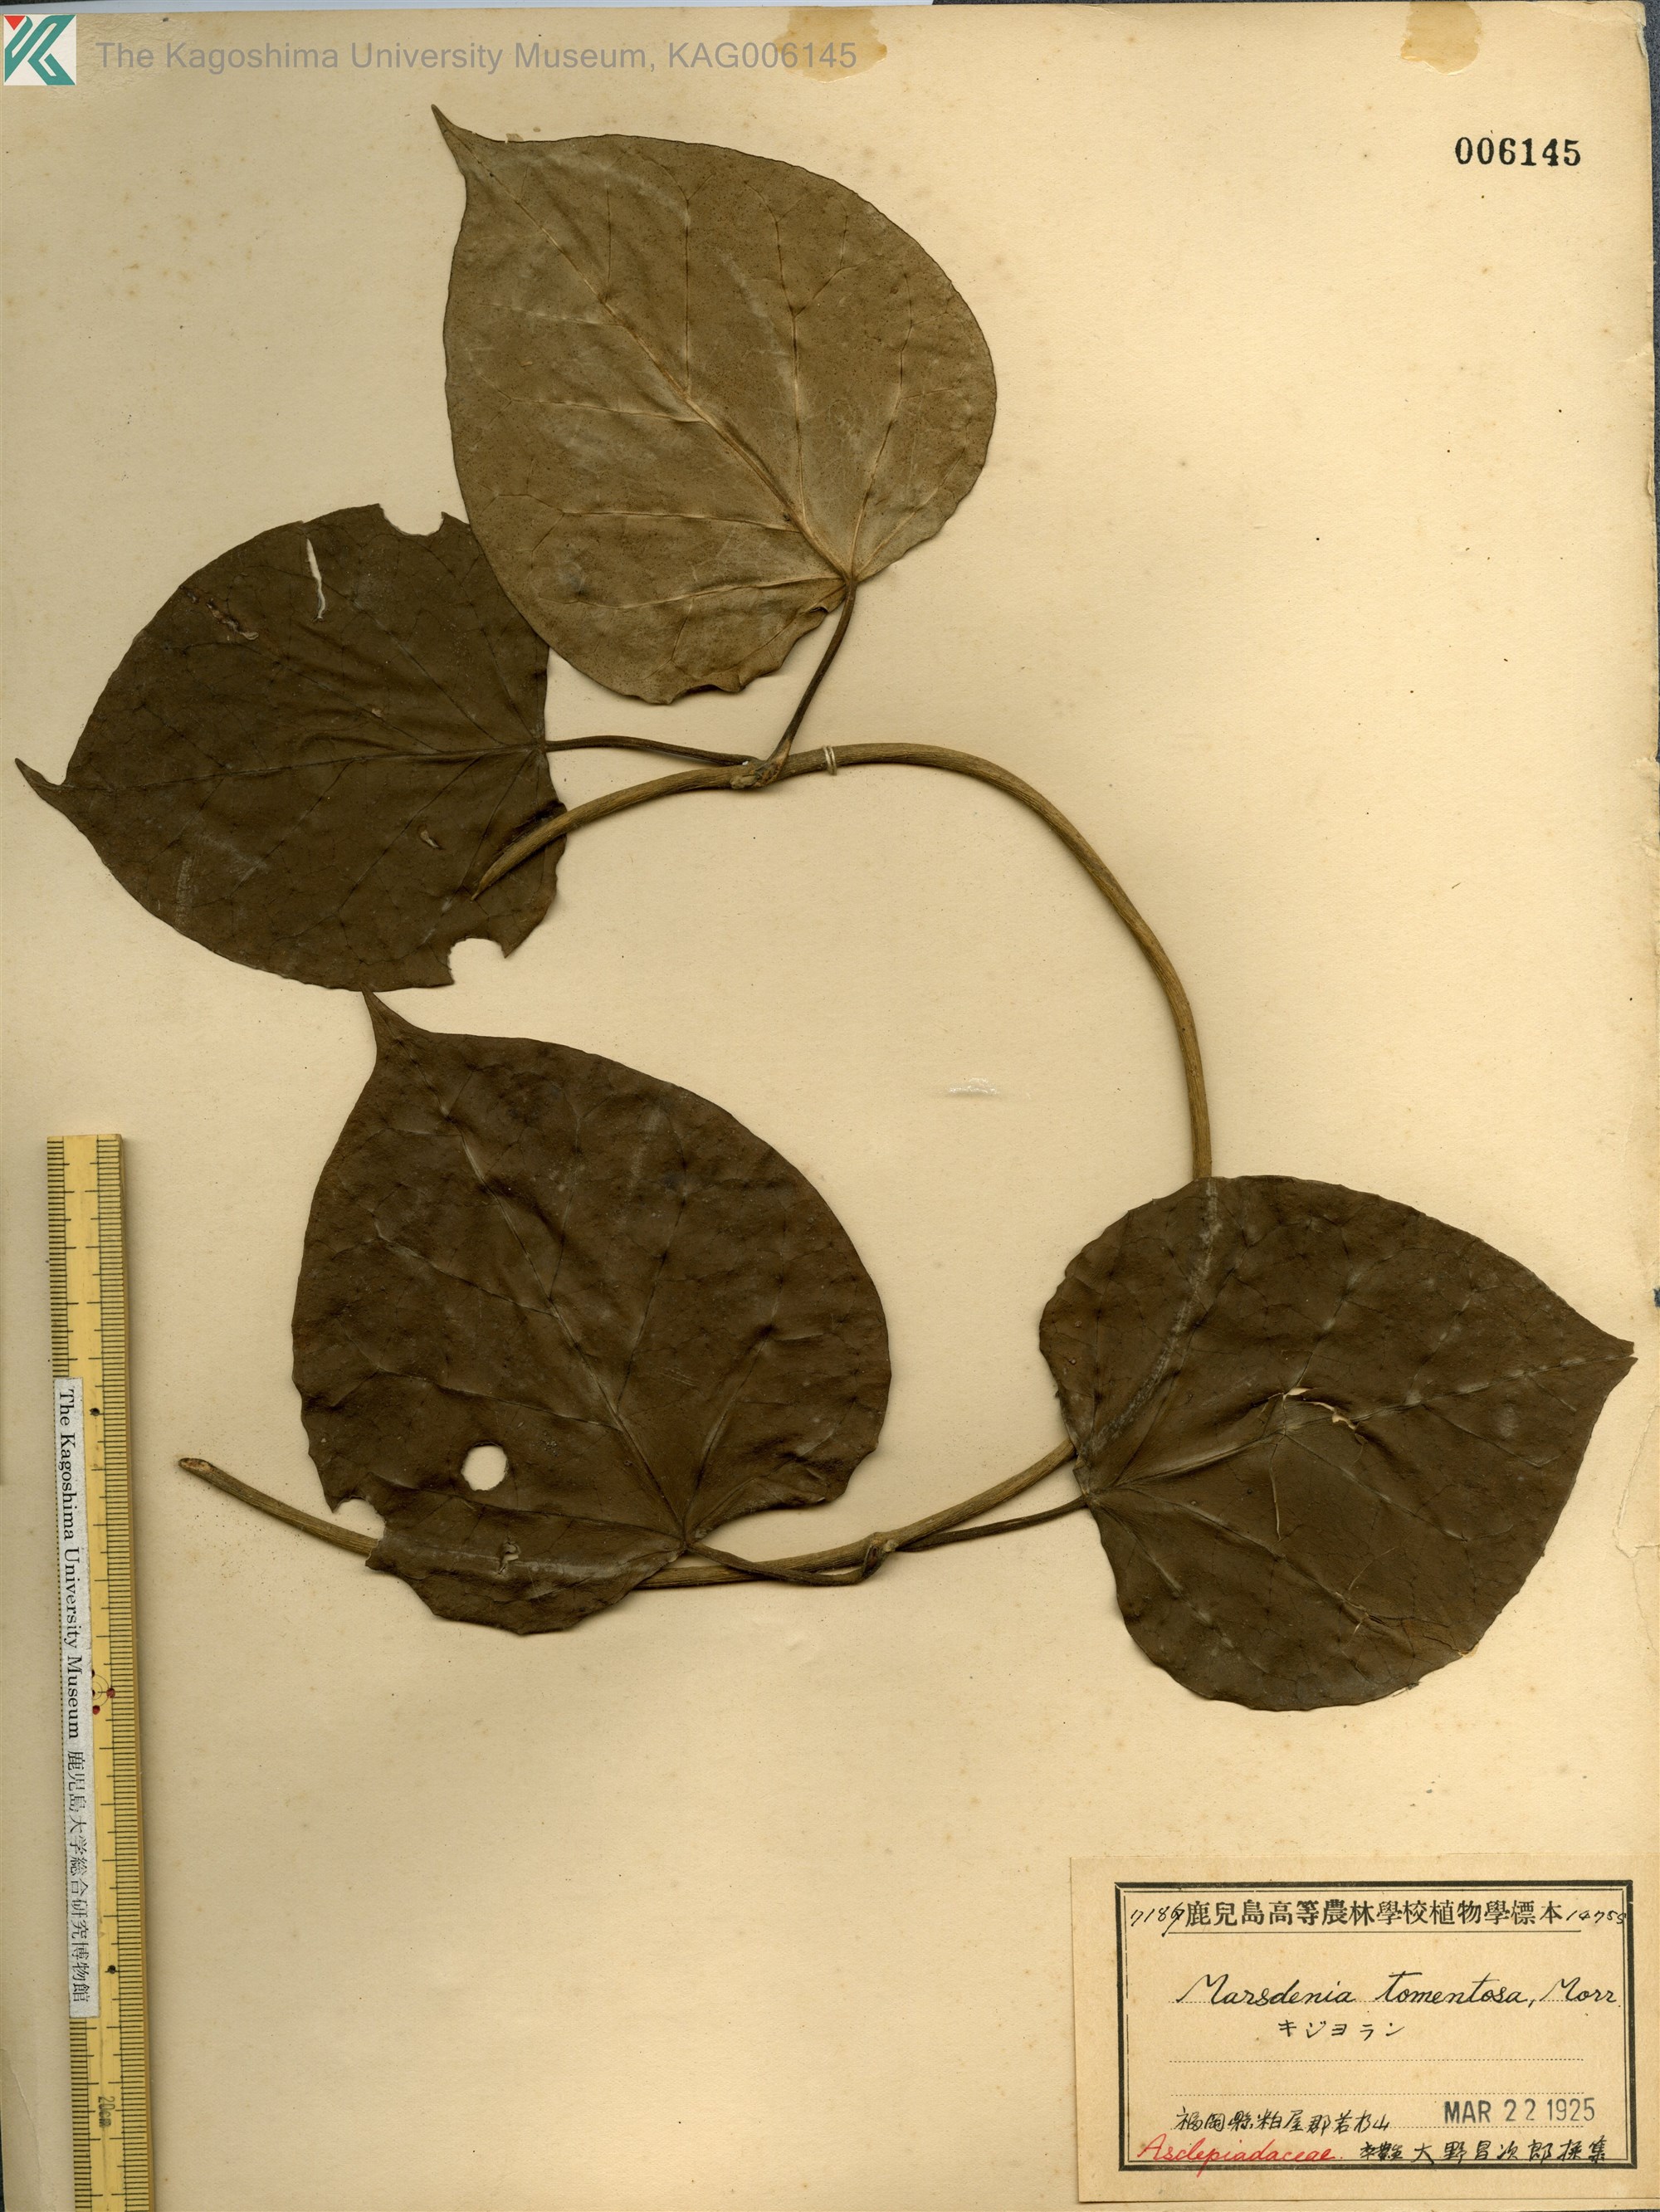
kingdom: Plantae
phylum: Tracheophyta
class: Magnoliopsida
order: Gentianales
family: Apocynaceae
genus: Sinomarsdenia
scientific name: Sinomarsdenia tomentosa
